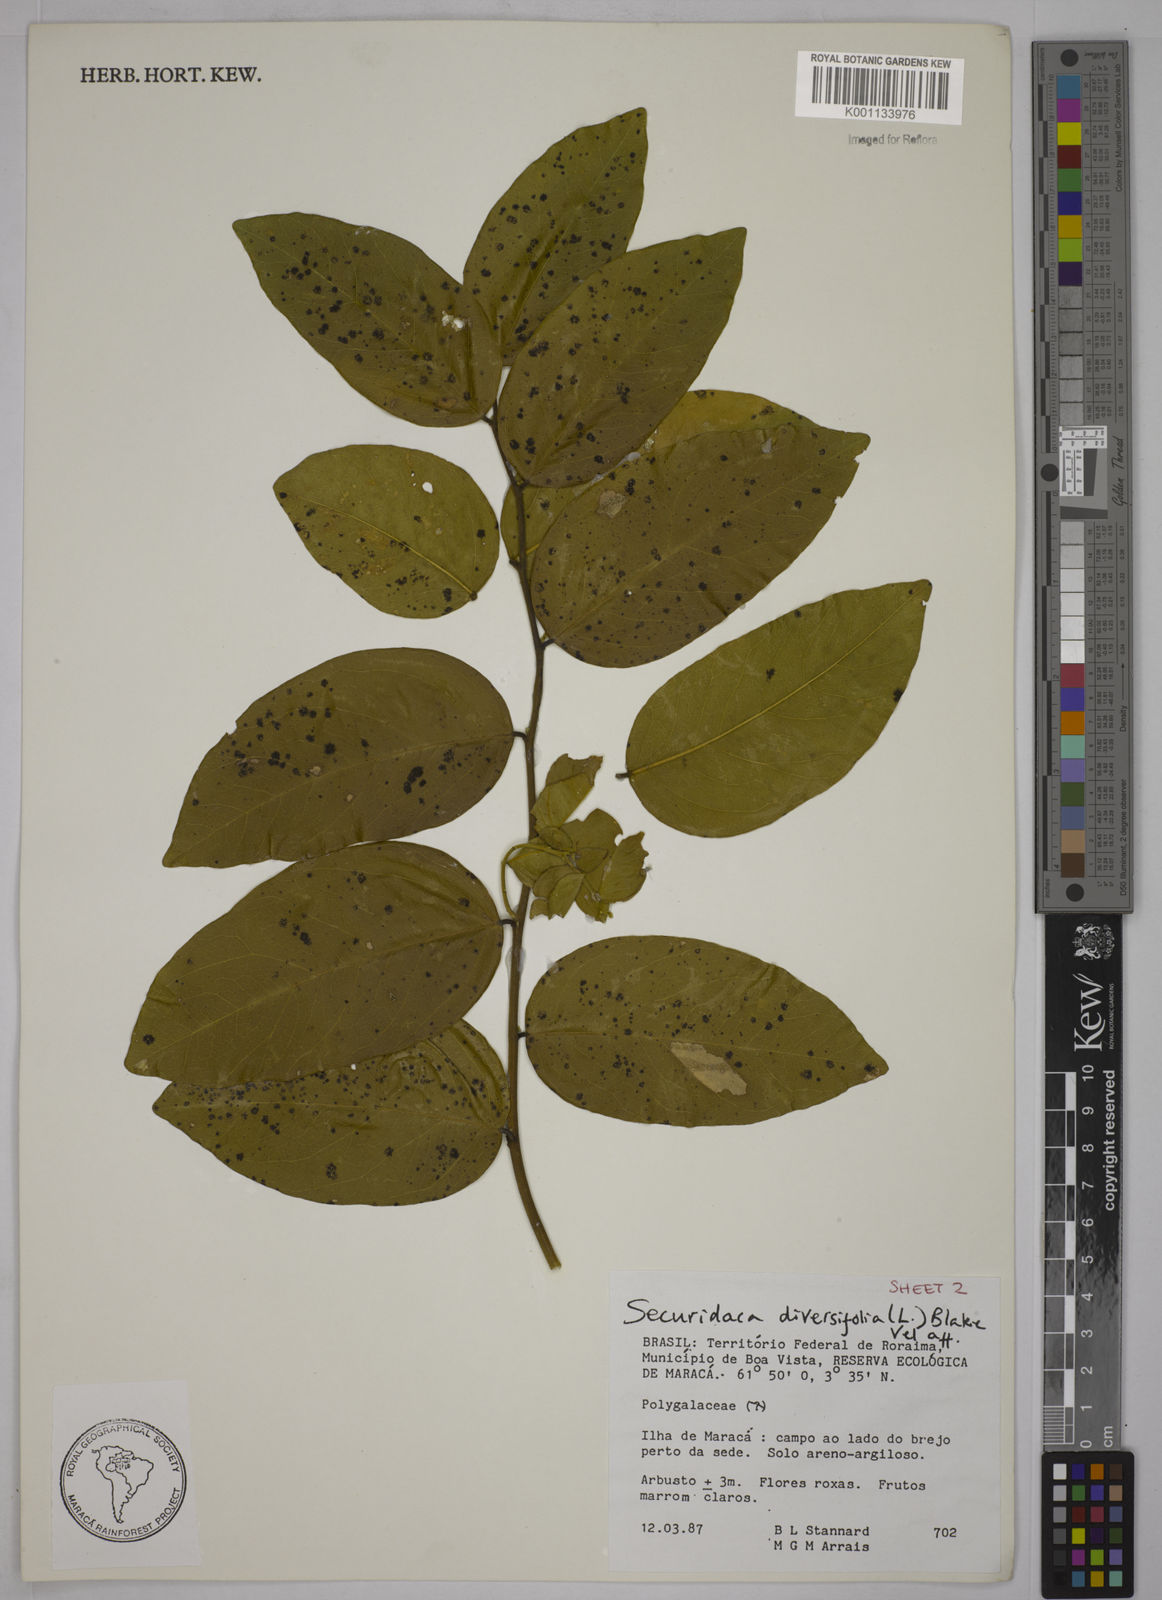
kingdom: Plantae
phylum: Tracheophyta
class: Magnoliopsida
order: Fabales
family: Polygalaceae
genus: Securidaca
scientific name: Securidaca diversifolia
